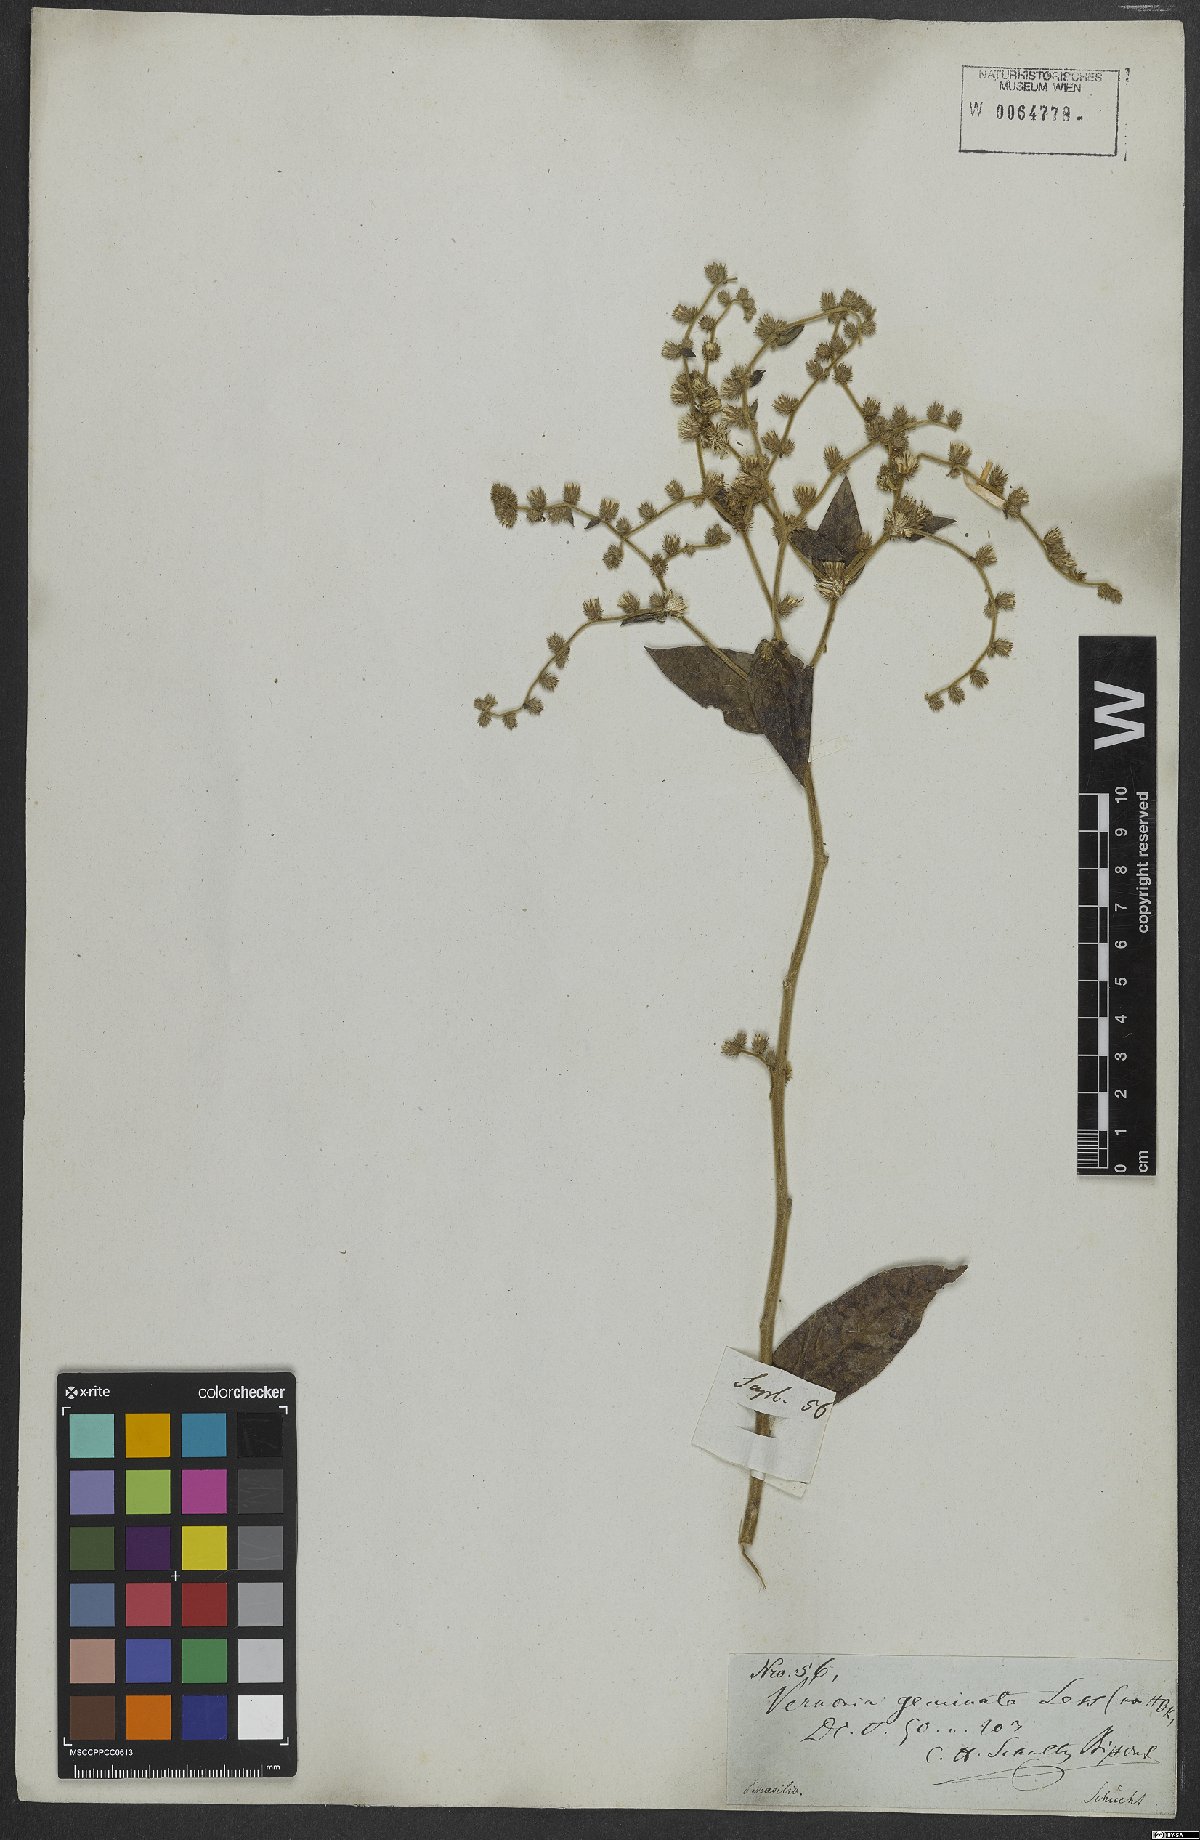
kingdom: Plantae
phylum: Tracheophyta
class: Magnoliopsida
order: Asterales
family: Asteraceae
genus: Lepidaploa
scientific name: Lepidaploa subsquarrosa
